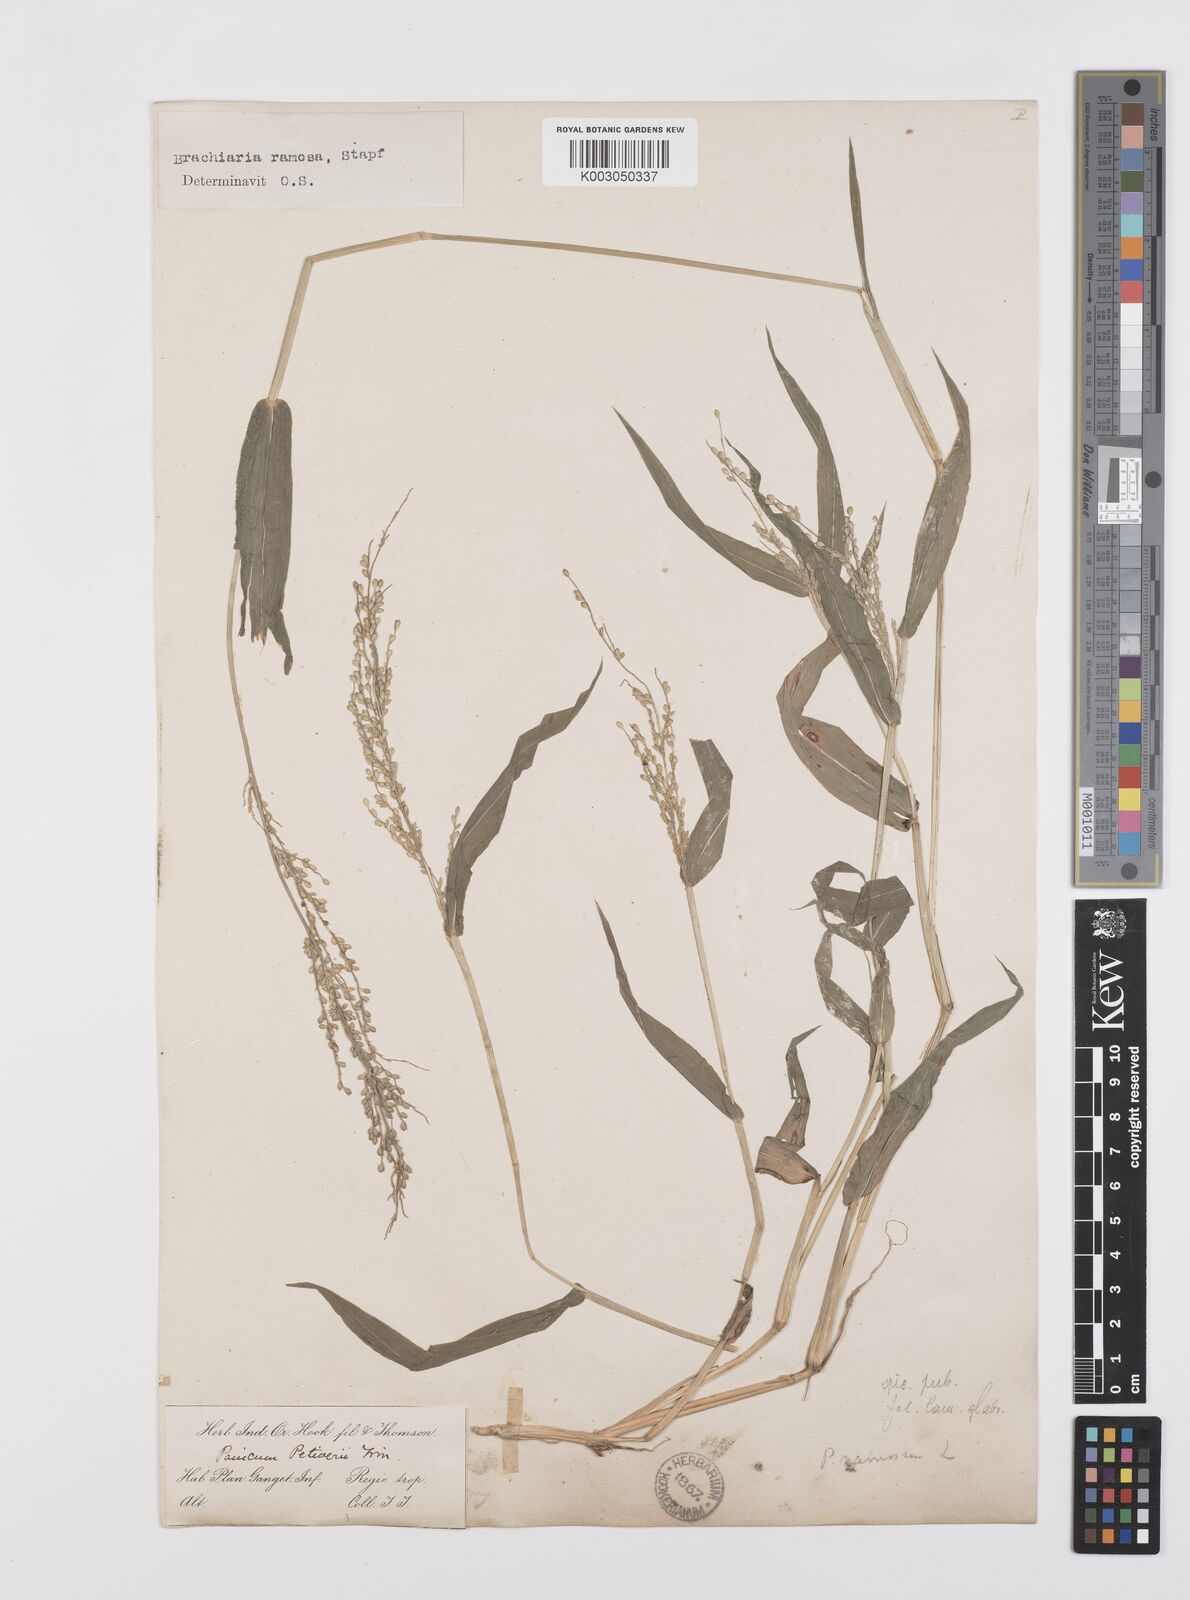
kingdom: Plantae
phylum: Tracheophyta
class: Liliopsida
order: Poales
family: Poaceae
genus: Urochloa
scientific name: Urochloa ramosa
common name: Browntop millet
